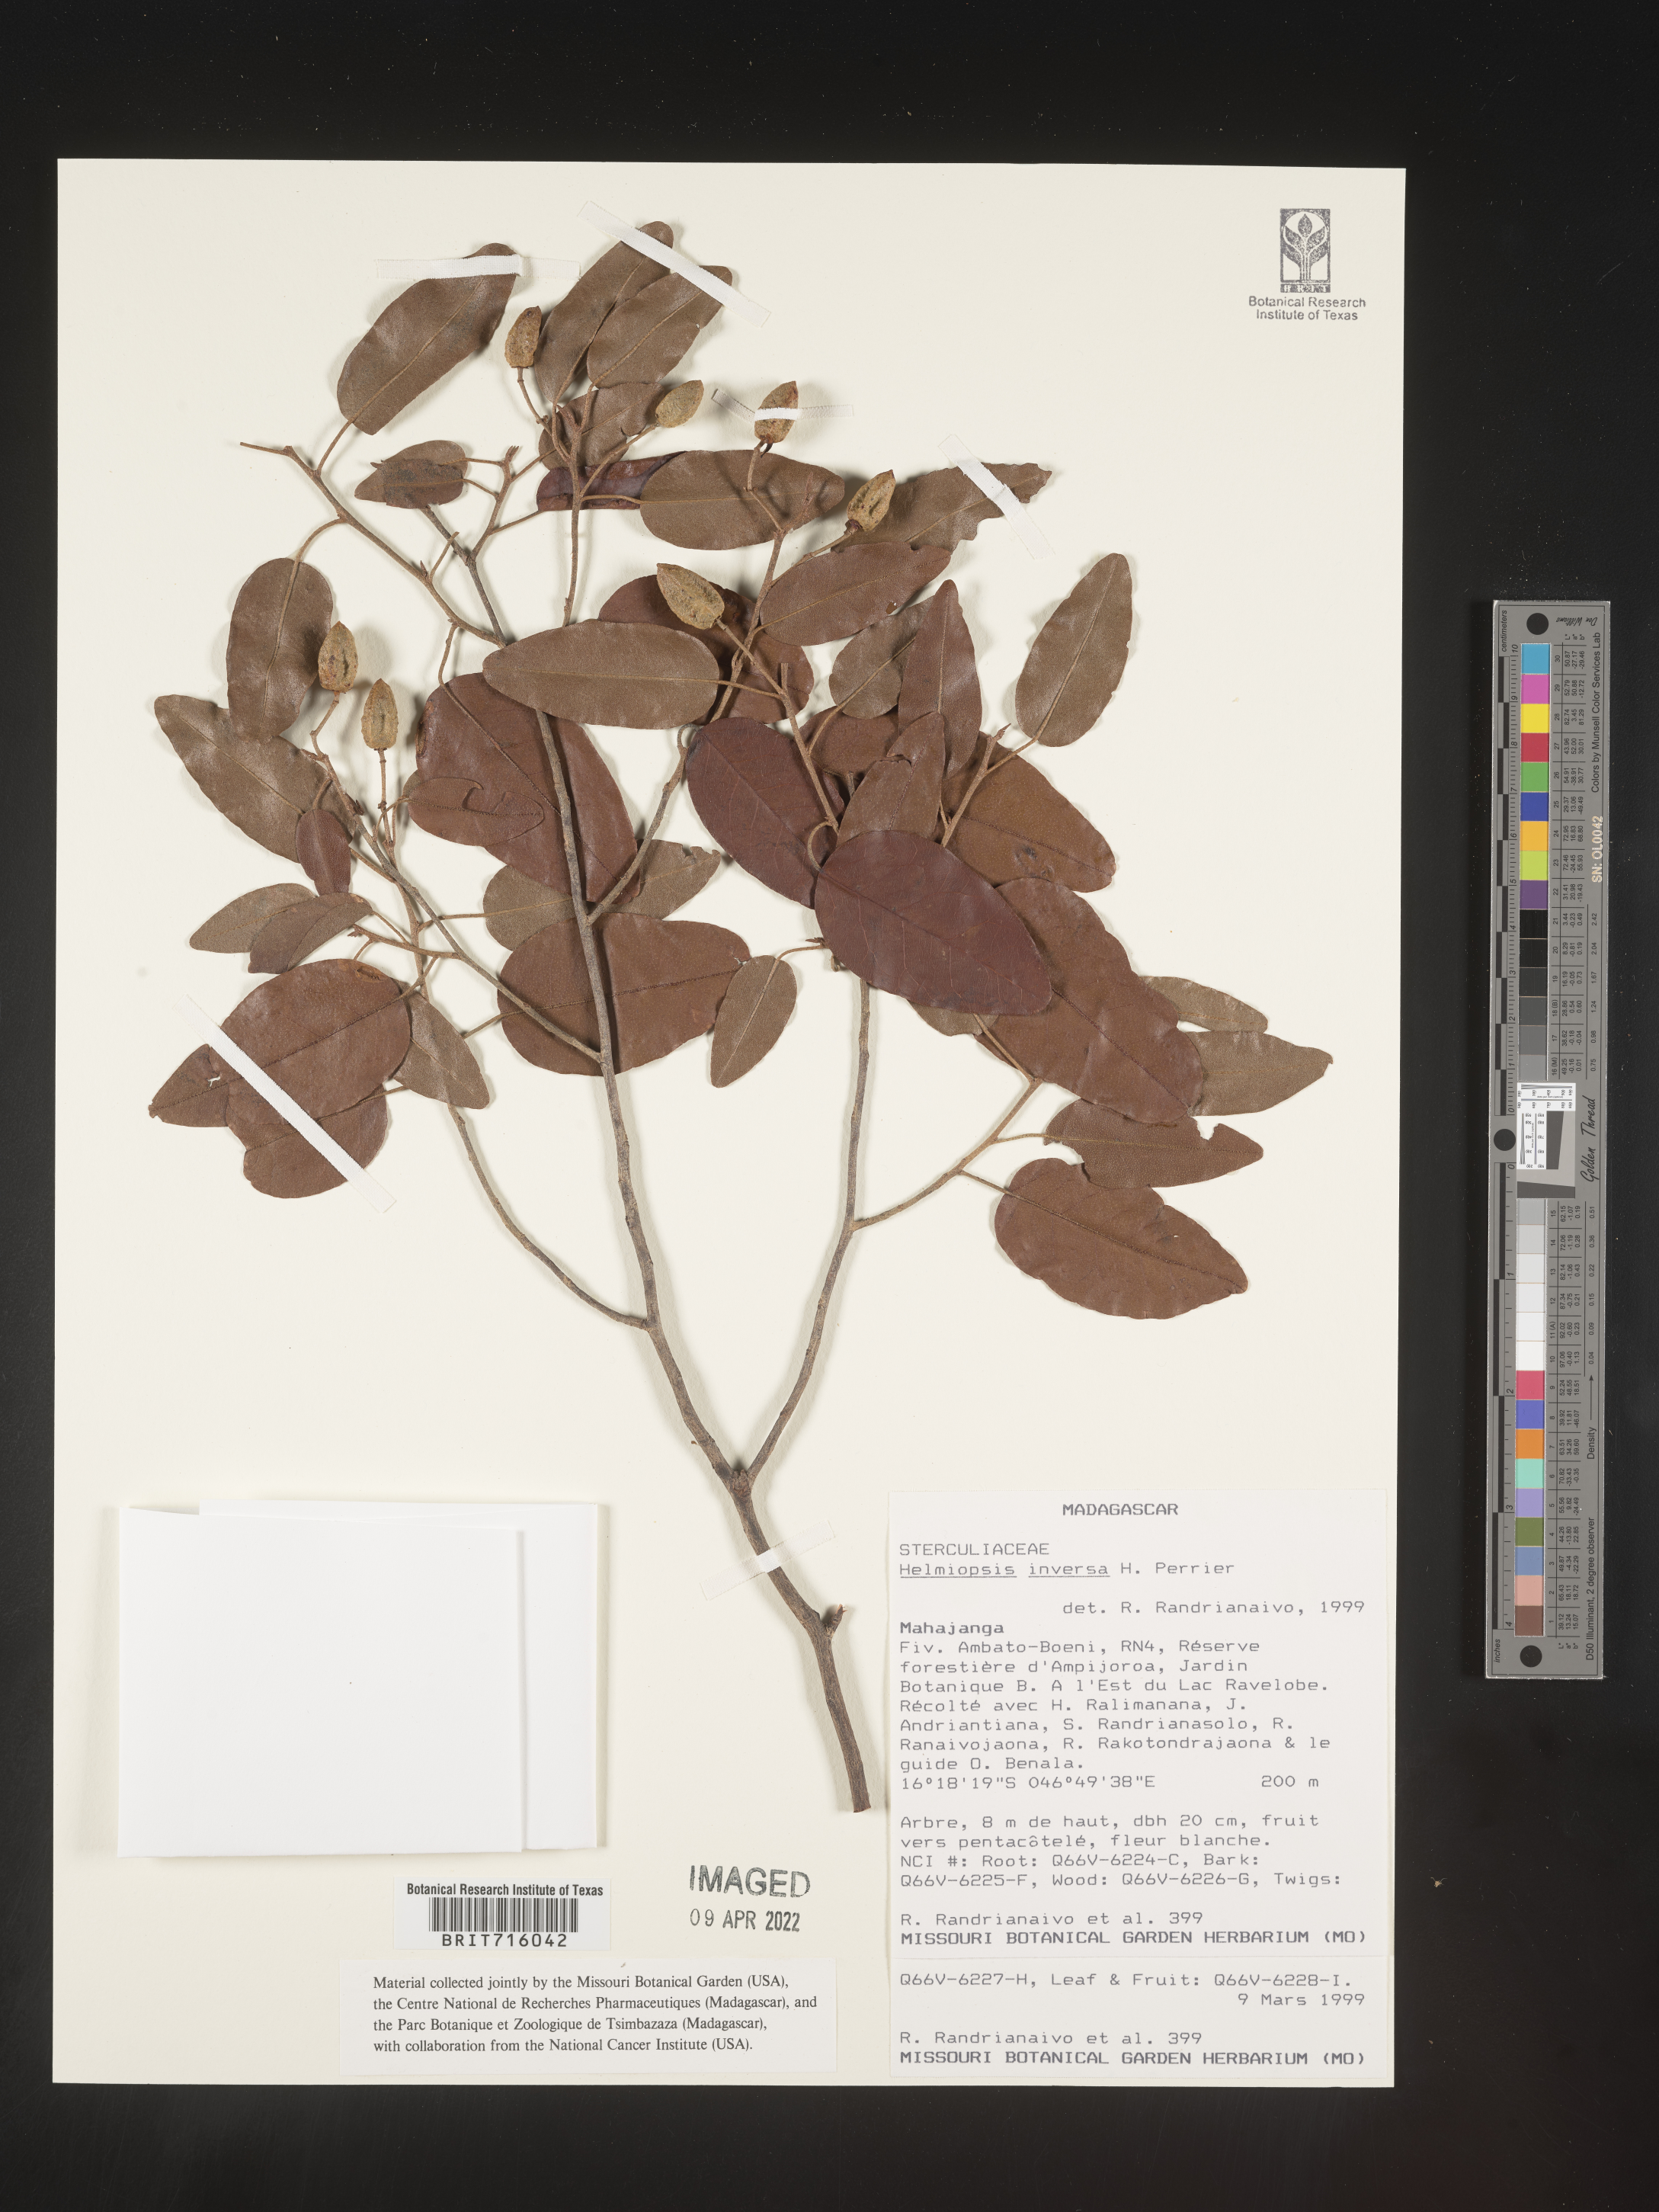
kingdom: Plantae
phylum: Tracheophyta
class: Magnoliopsida
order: Malvales
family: Malvaceae
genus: Eriolaena
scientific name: Eriolaena boivinii
